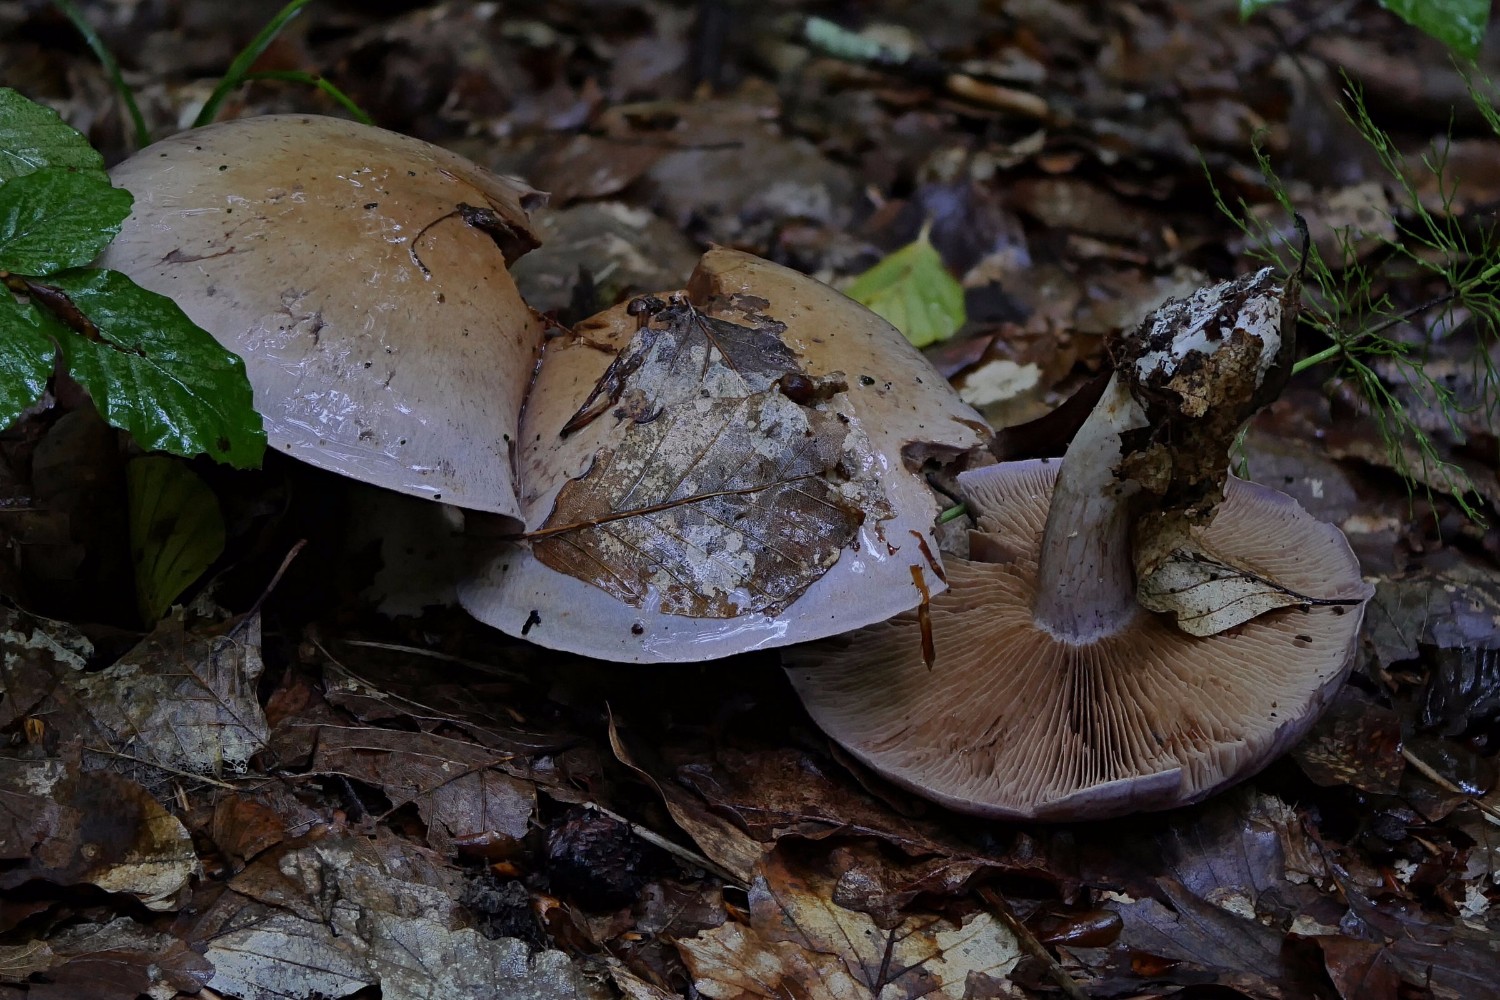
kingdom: Fungi
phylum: Basidiomycota
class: Agaricomycetes
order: Agaricales
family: Cortinariaceae
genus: Cortinarius
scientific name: Cortinarius largus
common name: violetrandet slørhat
